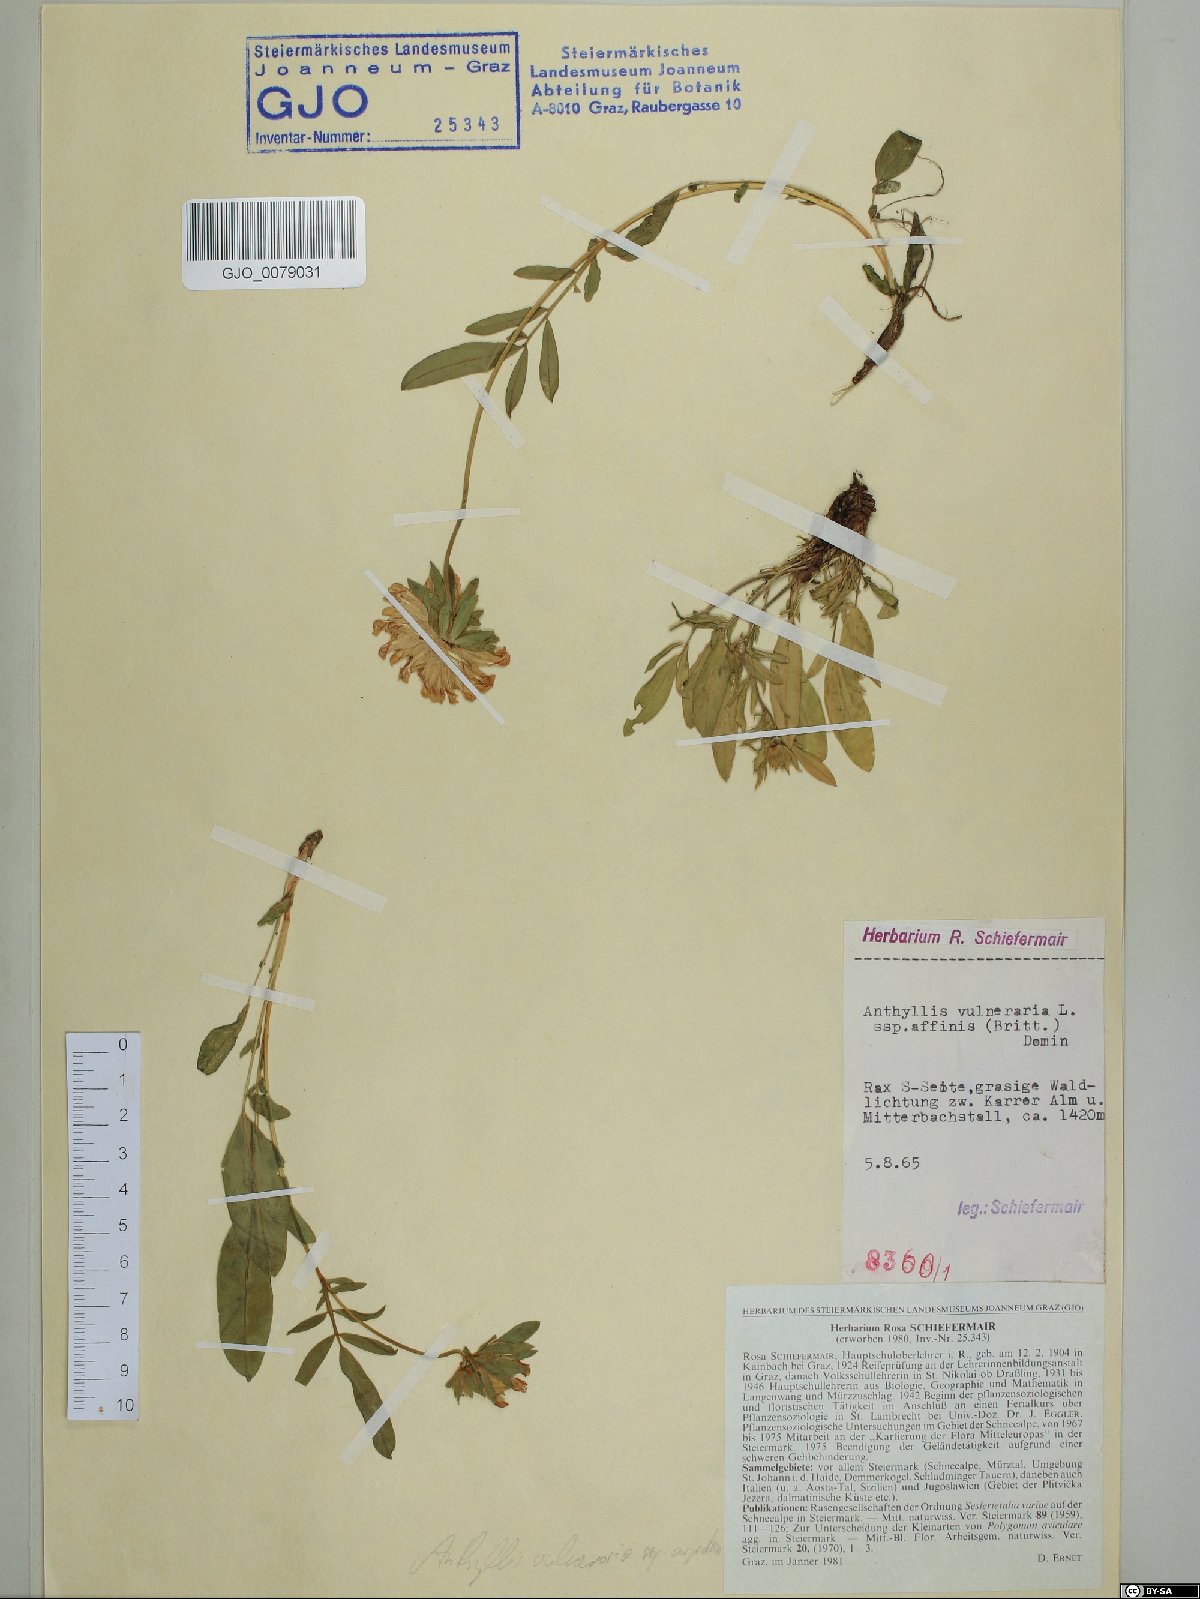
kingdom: Plantae
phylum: Tracheophyta
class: Magnoliopsida
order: Fabales
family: Fabaceae
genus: Anthyllis
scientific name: Anthyllis vulneraria
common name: Kidney vetch
